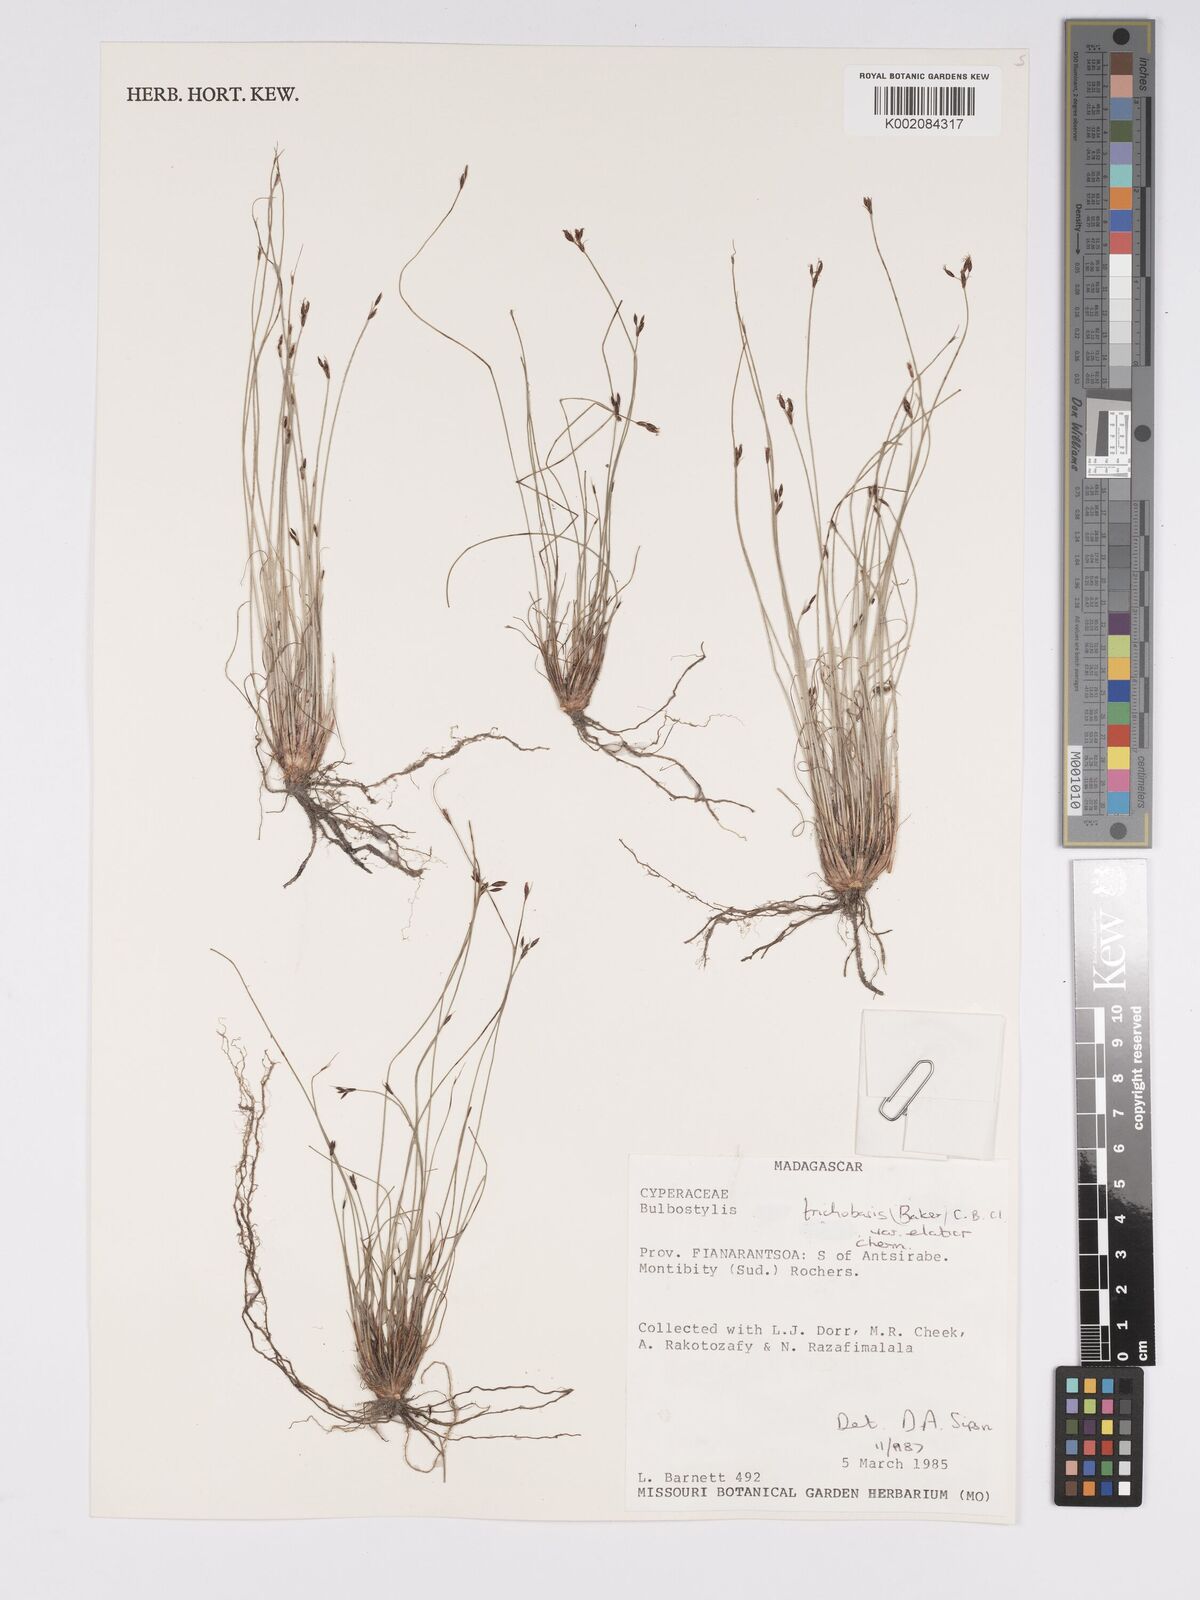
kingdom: Plantae
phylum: Tracheophyta
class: Liliopsida
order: Poales
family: Cyperaceae
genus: Bulbostylis
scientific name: Bulbostylis trichobasis
